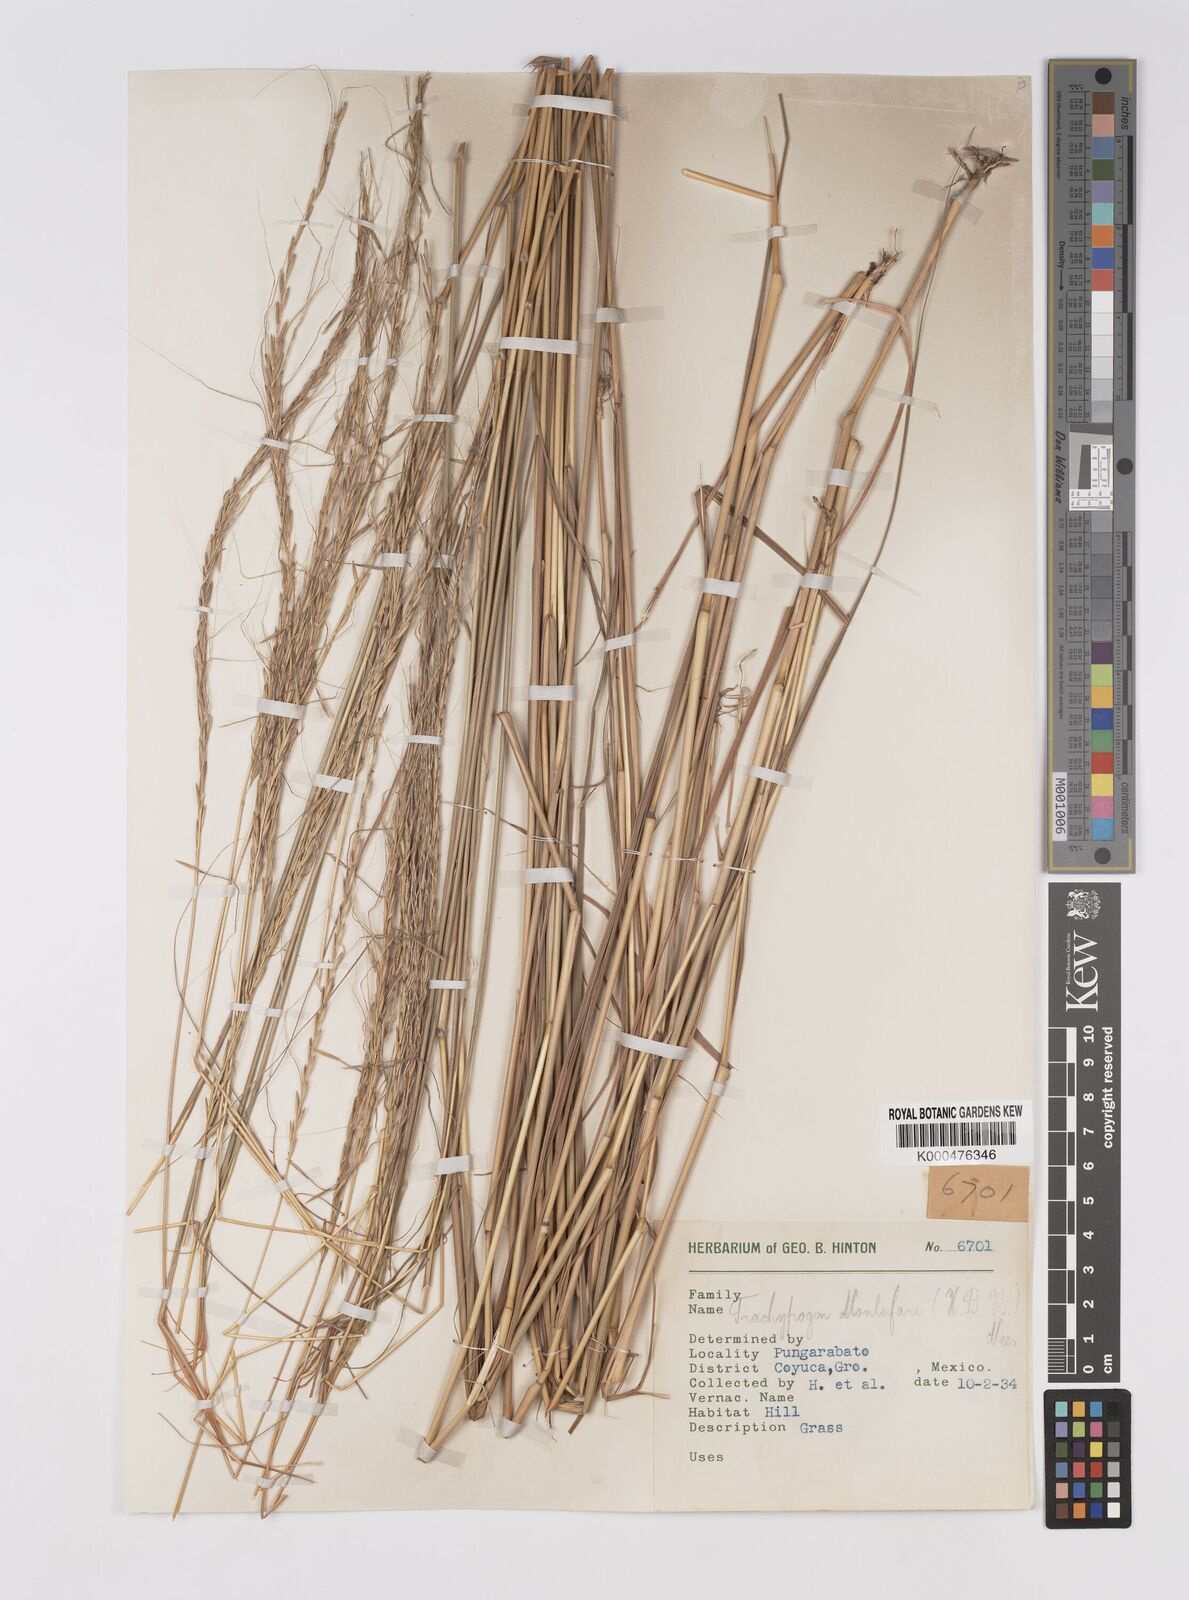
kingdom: Plantae
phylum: Tracheophyta
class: Liliopsida
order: Poales
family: Poaceae
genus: Trachypogon
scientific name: Trachypogon spicatus
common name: Crinkle-awn
